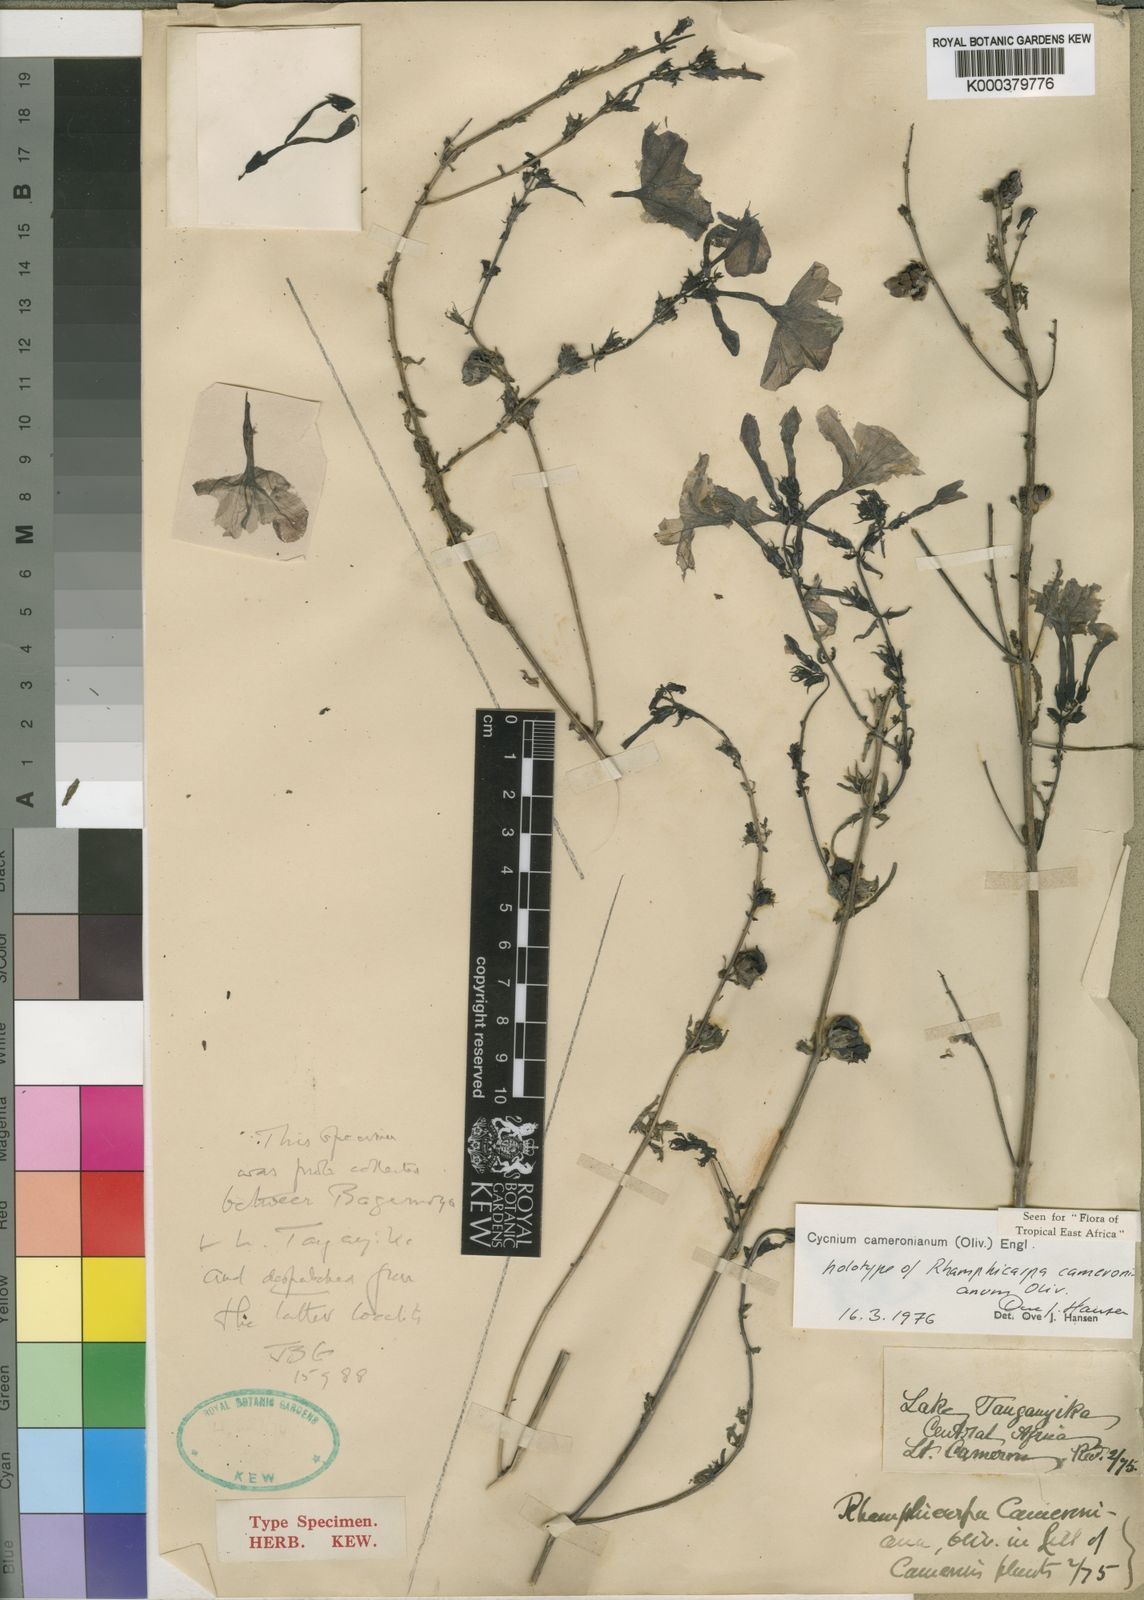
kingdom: Plantae
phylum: Tracheophyta
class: Magnoliopsida
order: Lamiales
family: Orobanchaceae
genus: Cycnium
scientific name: Cycnium cameronianum
